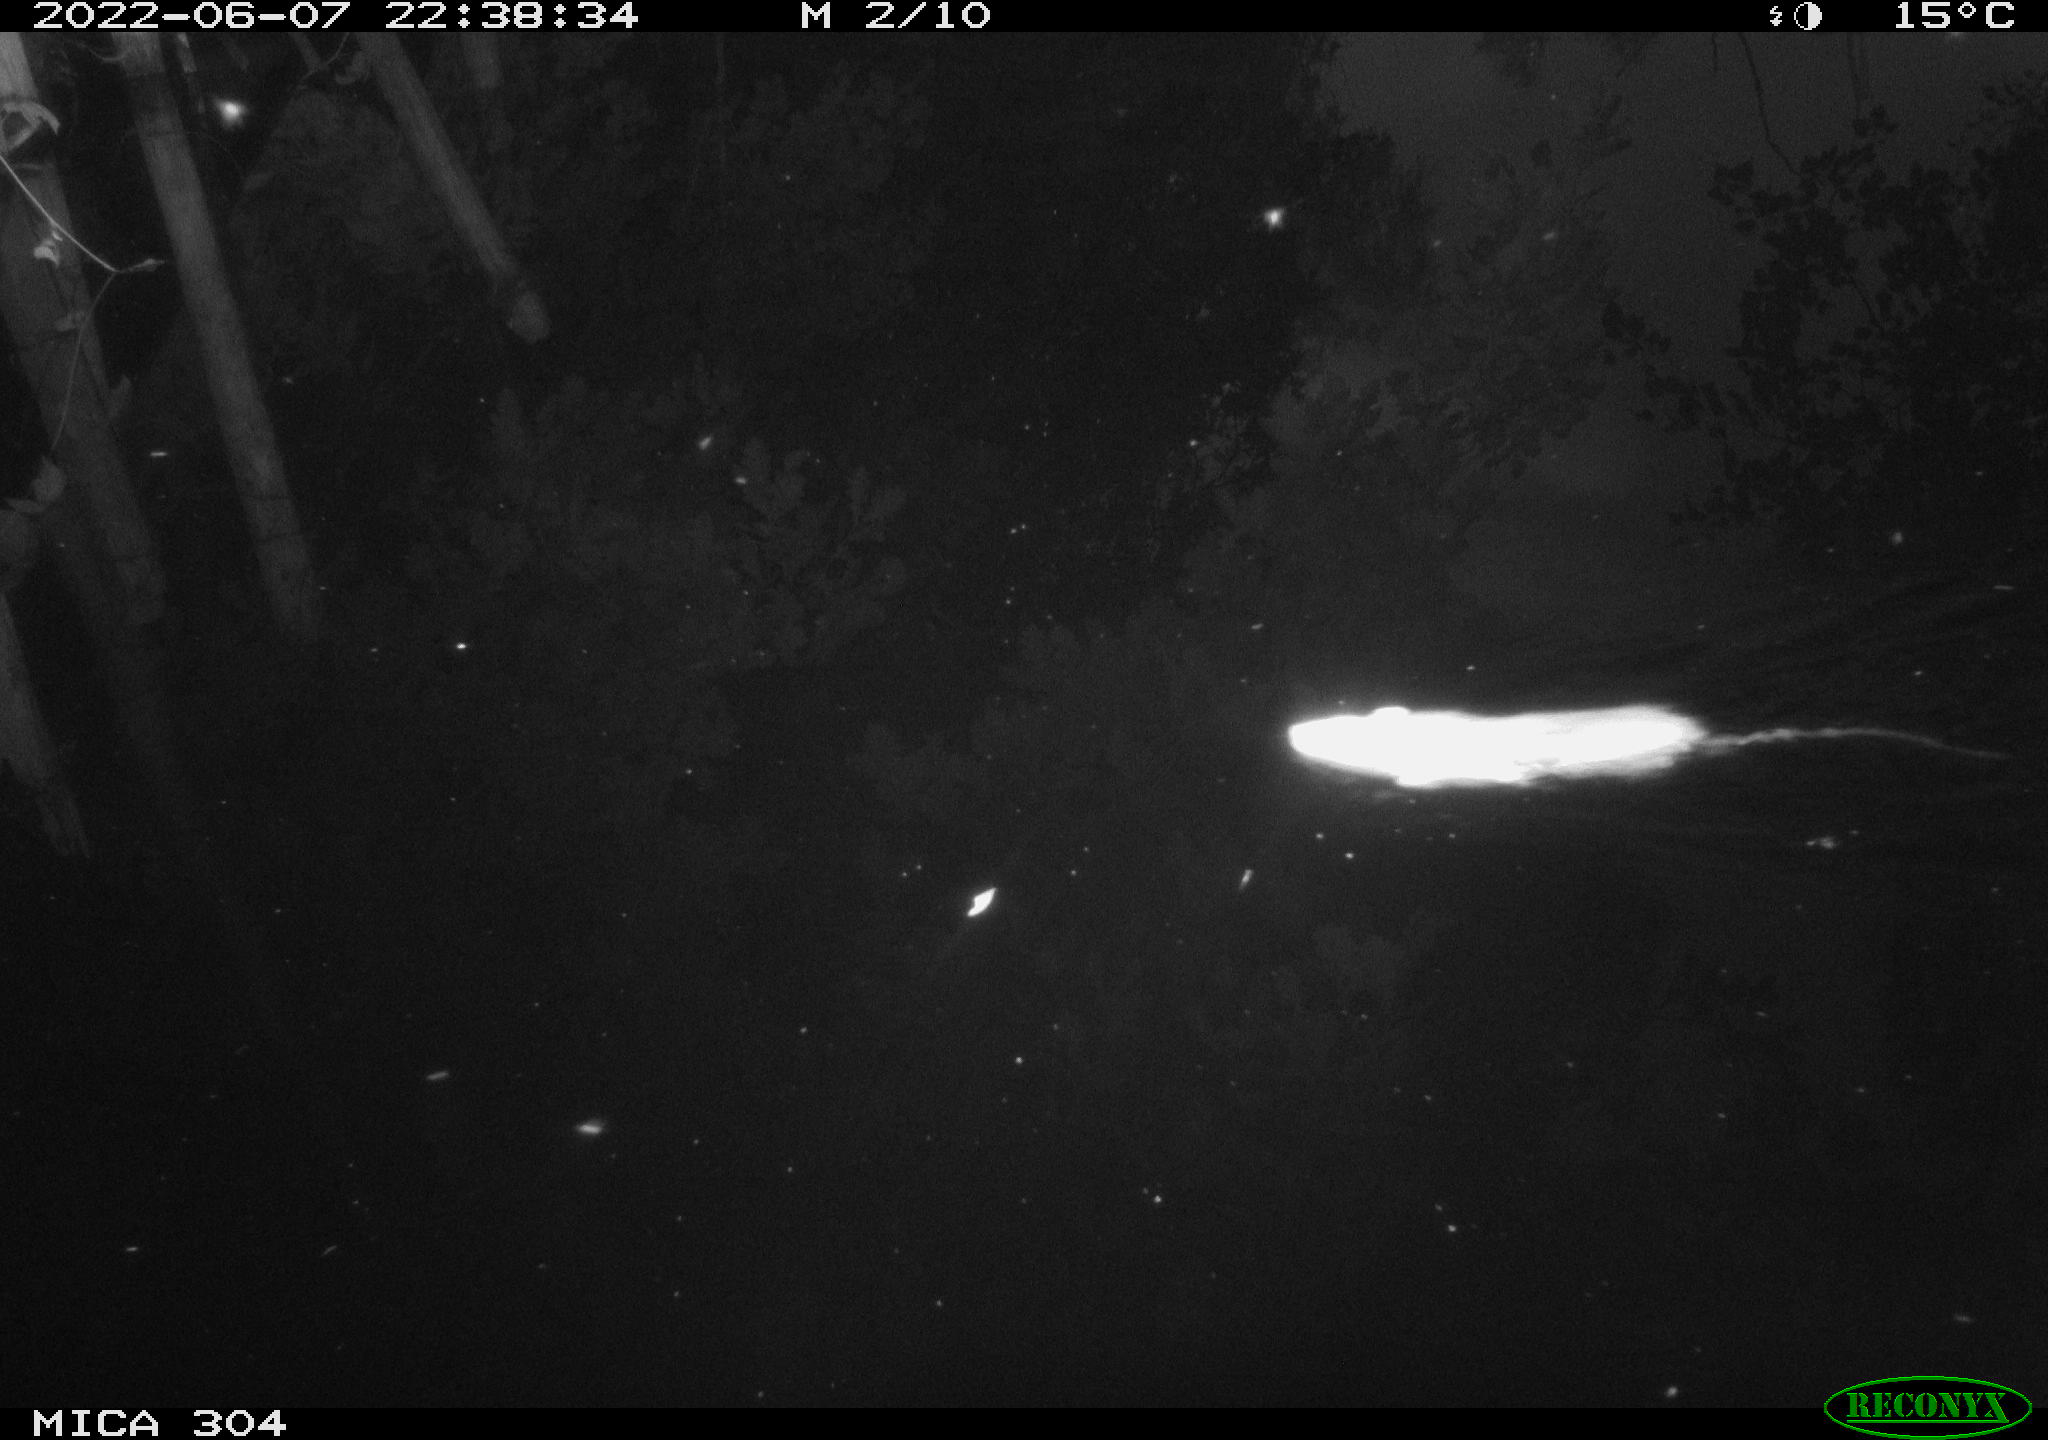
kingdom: Animalia
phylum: Chordata
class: Mammalia
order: Rodentia
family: Muridae
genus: Rattus
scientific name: Rattus norvegicus
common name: Brown rat
